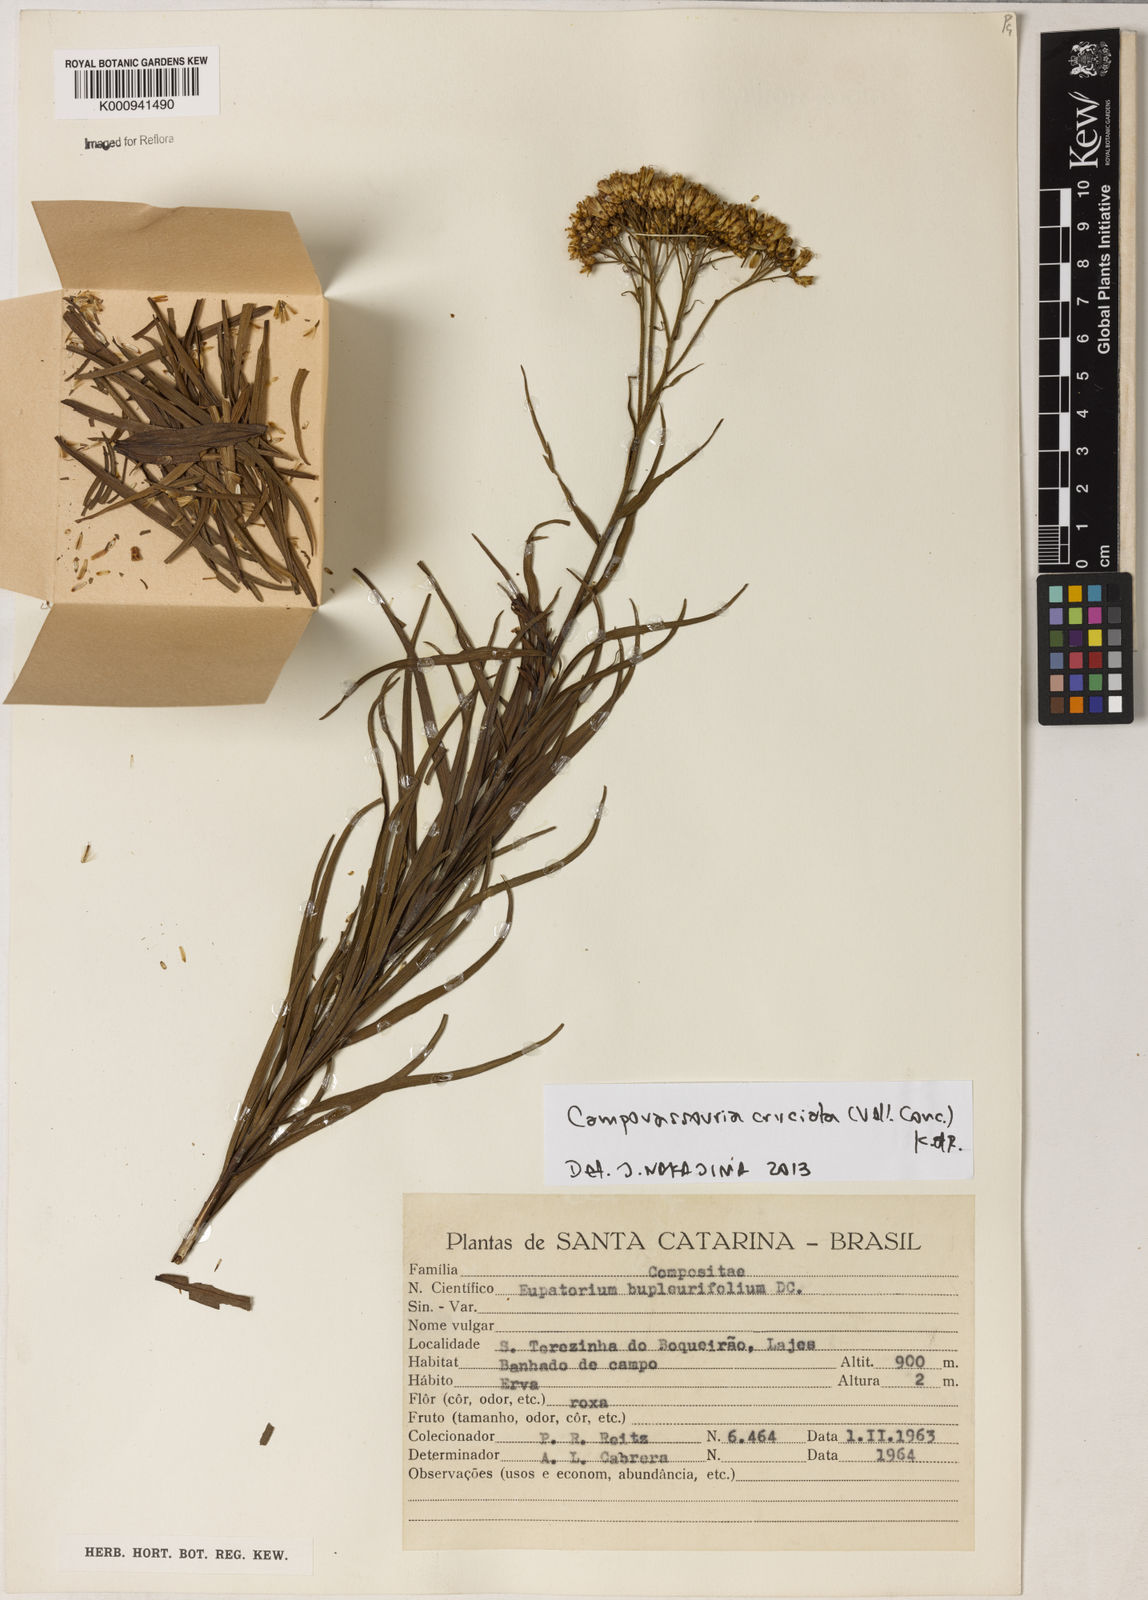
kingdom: Plantae
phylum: Tracheophyta
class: Magnoliopsida
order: Asterales
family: Asteraceae
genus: Campovassouria
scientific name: Campovassouria cruciata
